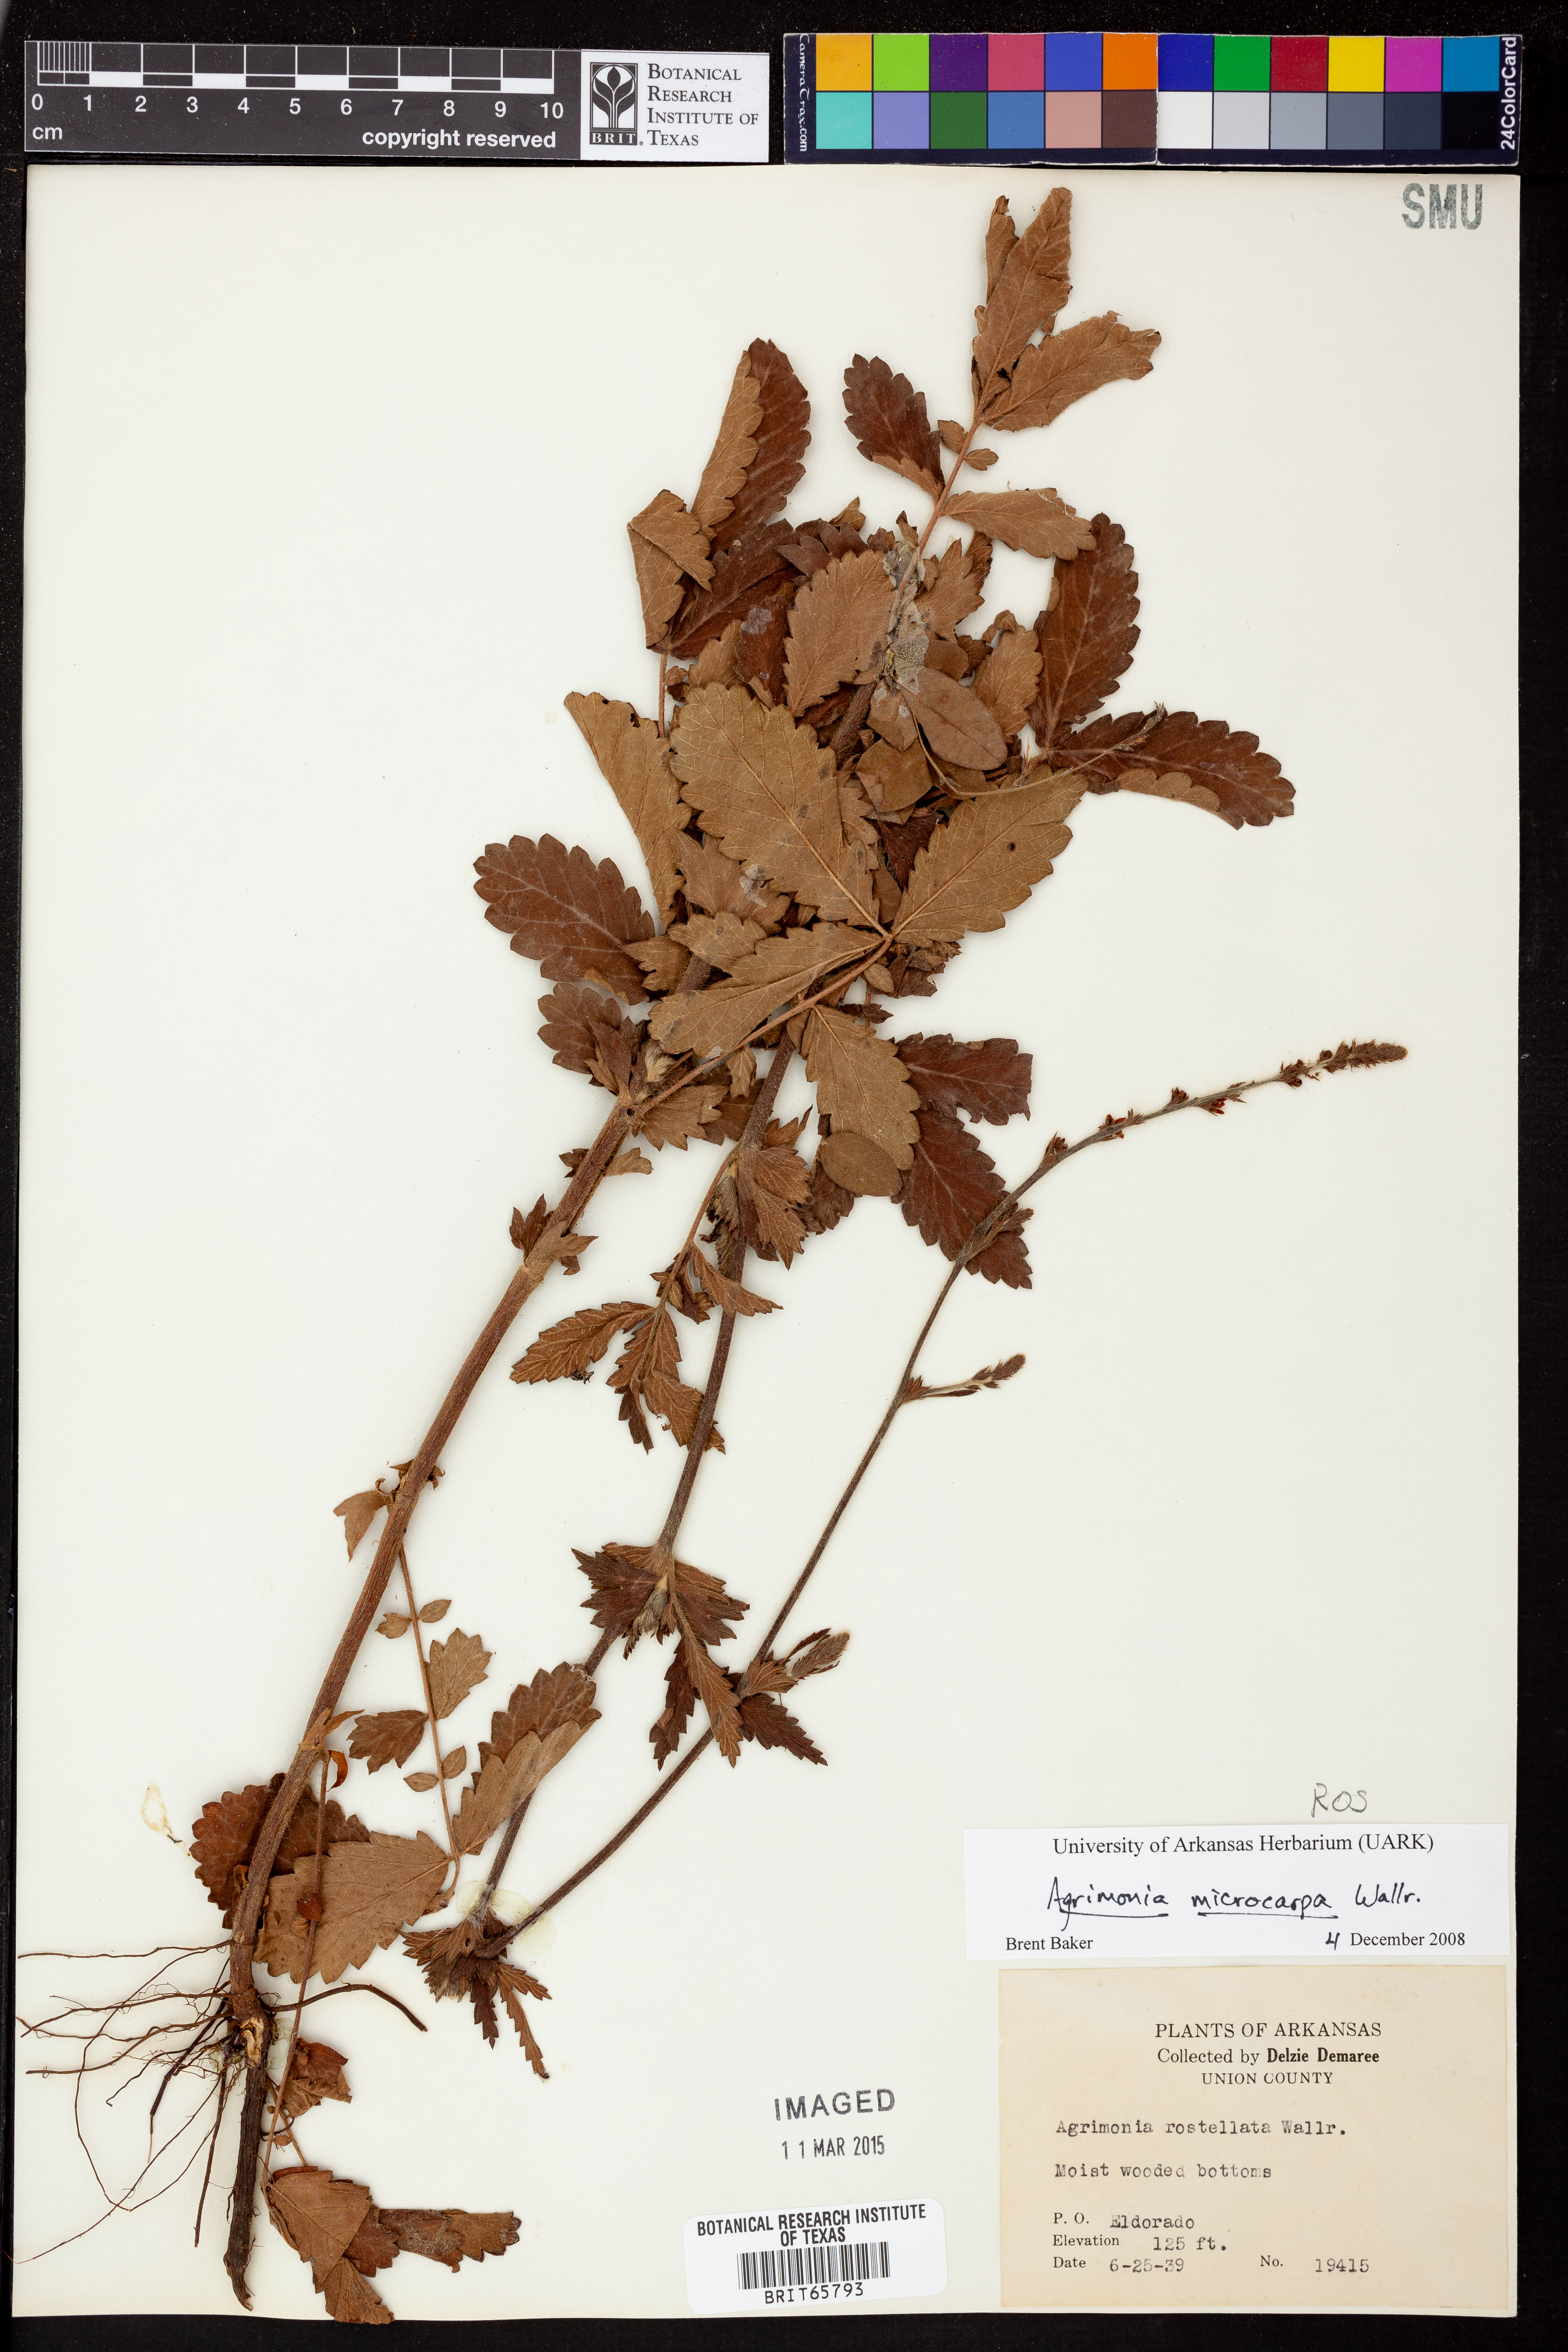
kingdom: Plantae
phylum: Tracheophyta
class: Magnoliopsida
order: Rosales
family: Rosaceae
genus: Agrimonia
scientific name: Agrimonia microcarpa
